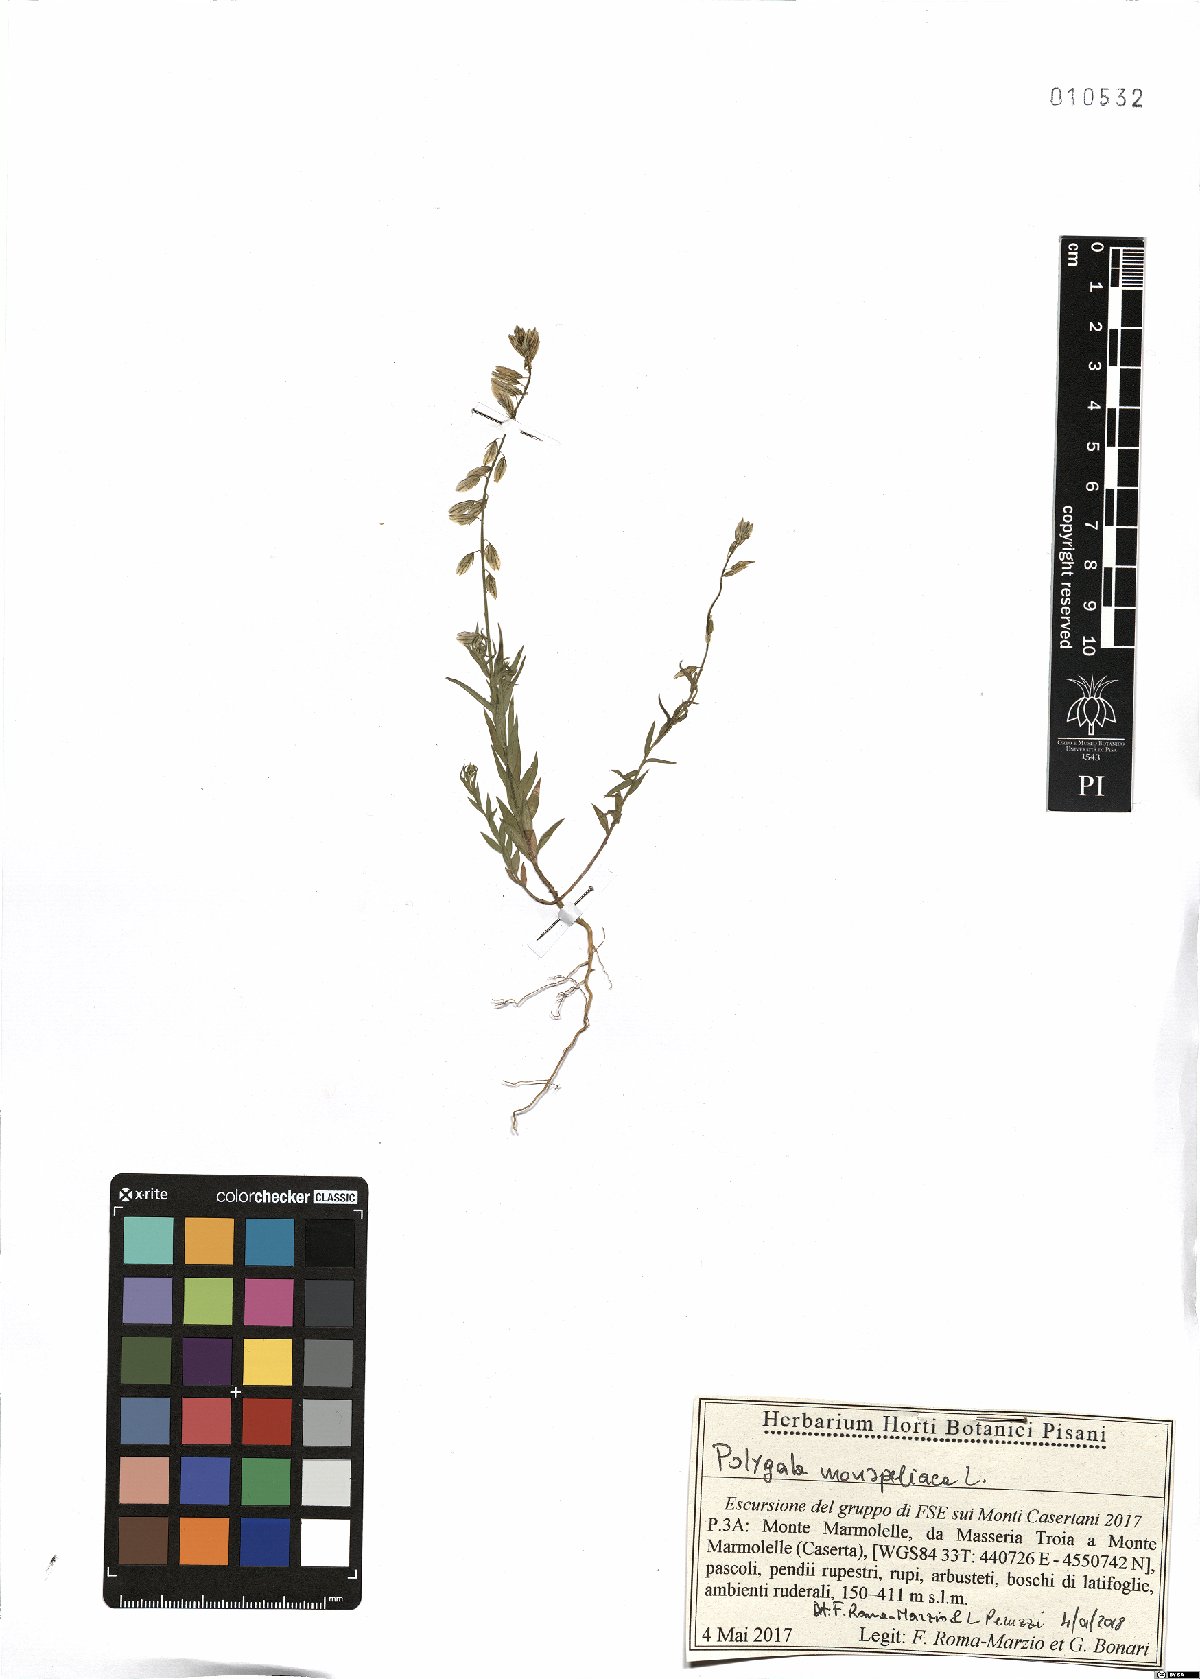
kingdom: Plantae
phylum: Tracheophyta
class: Magnoliopsida
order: Fabales
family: Polygalaceae
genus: Polygala
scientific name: Polygala monspeliaca
